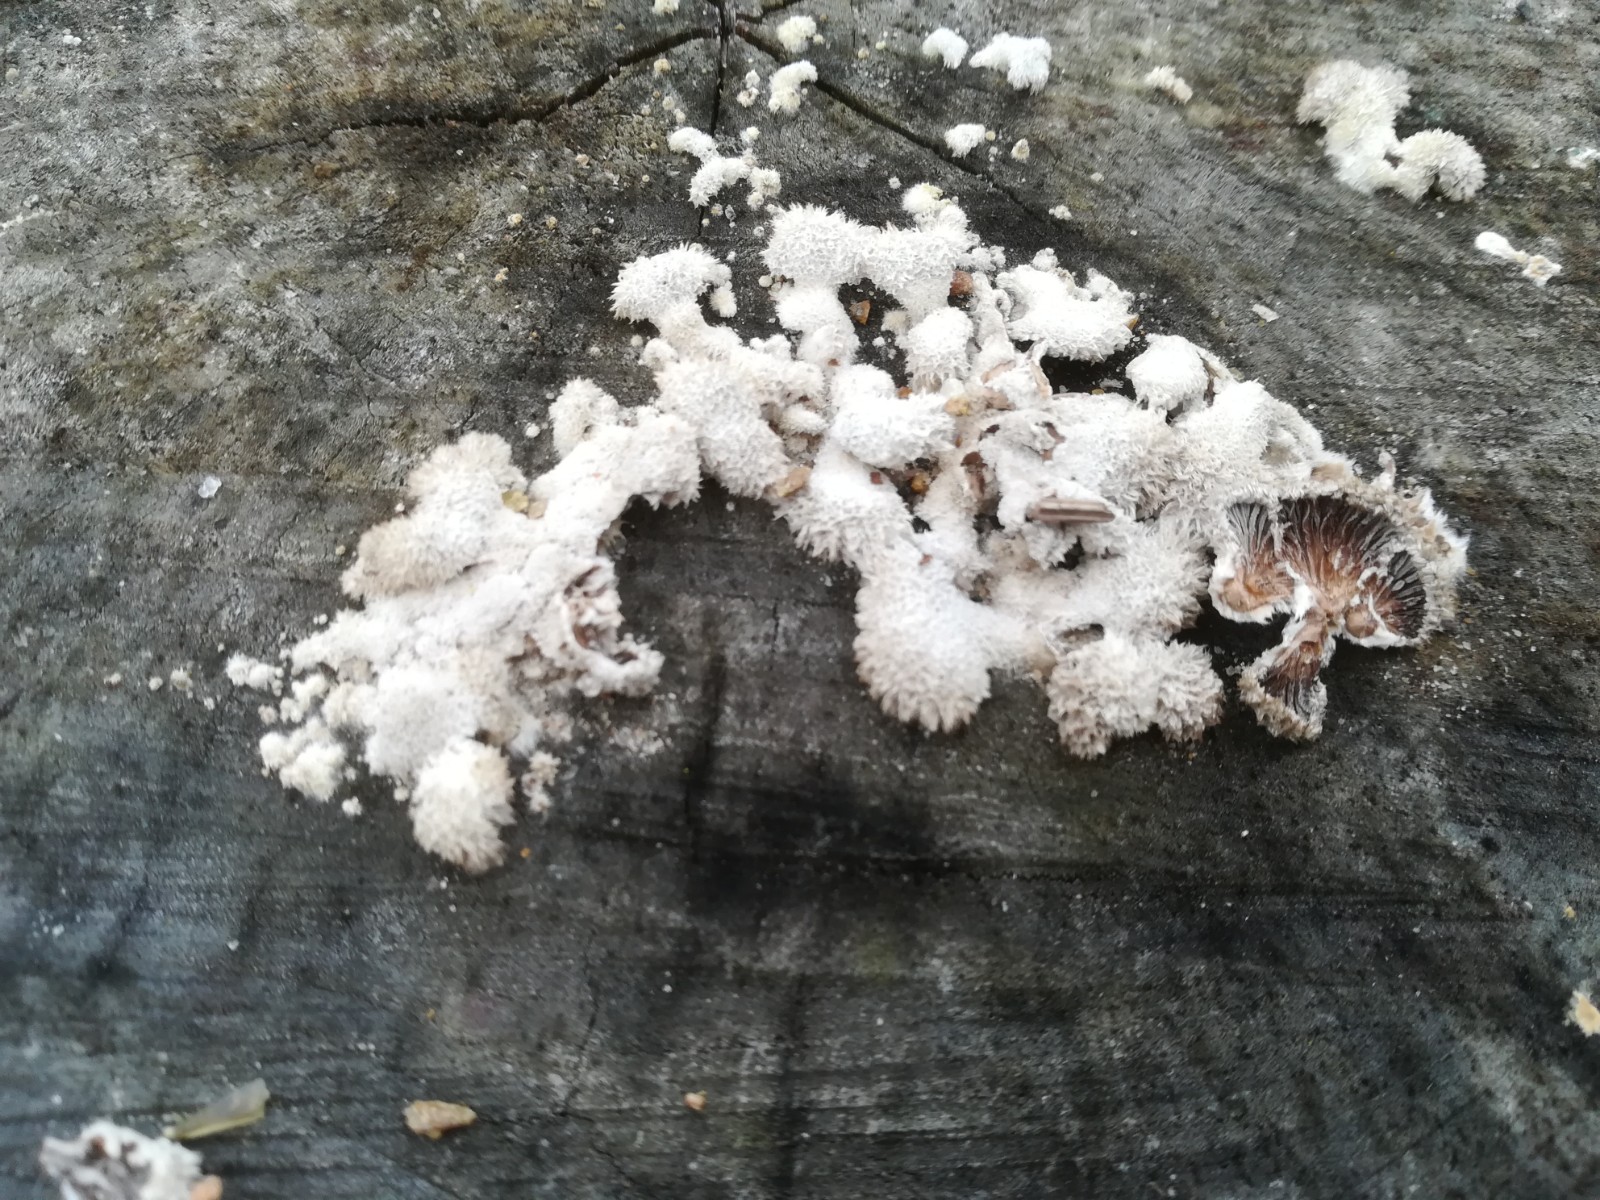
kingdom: Fungi
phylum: Basidiomycota
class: Agaricomycetes
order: Agaricales
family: Schizophyllaceae
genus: Schizophyllum
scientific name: Schizophyllum commune
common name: kløvblad
